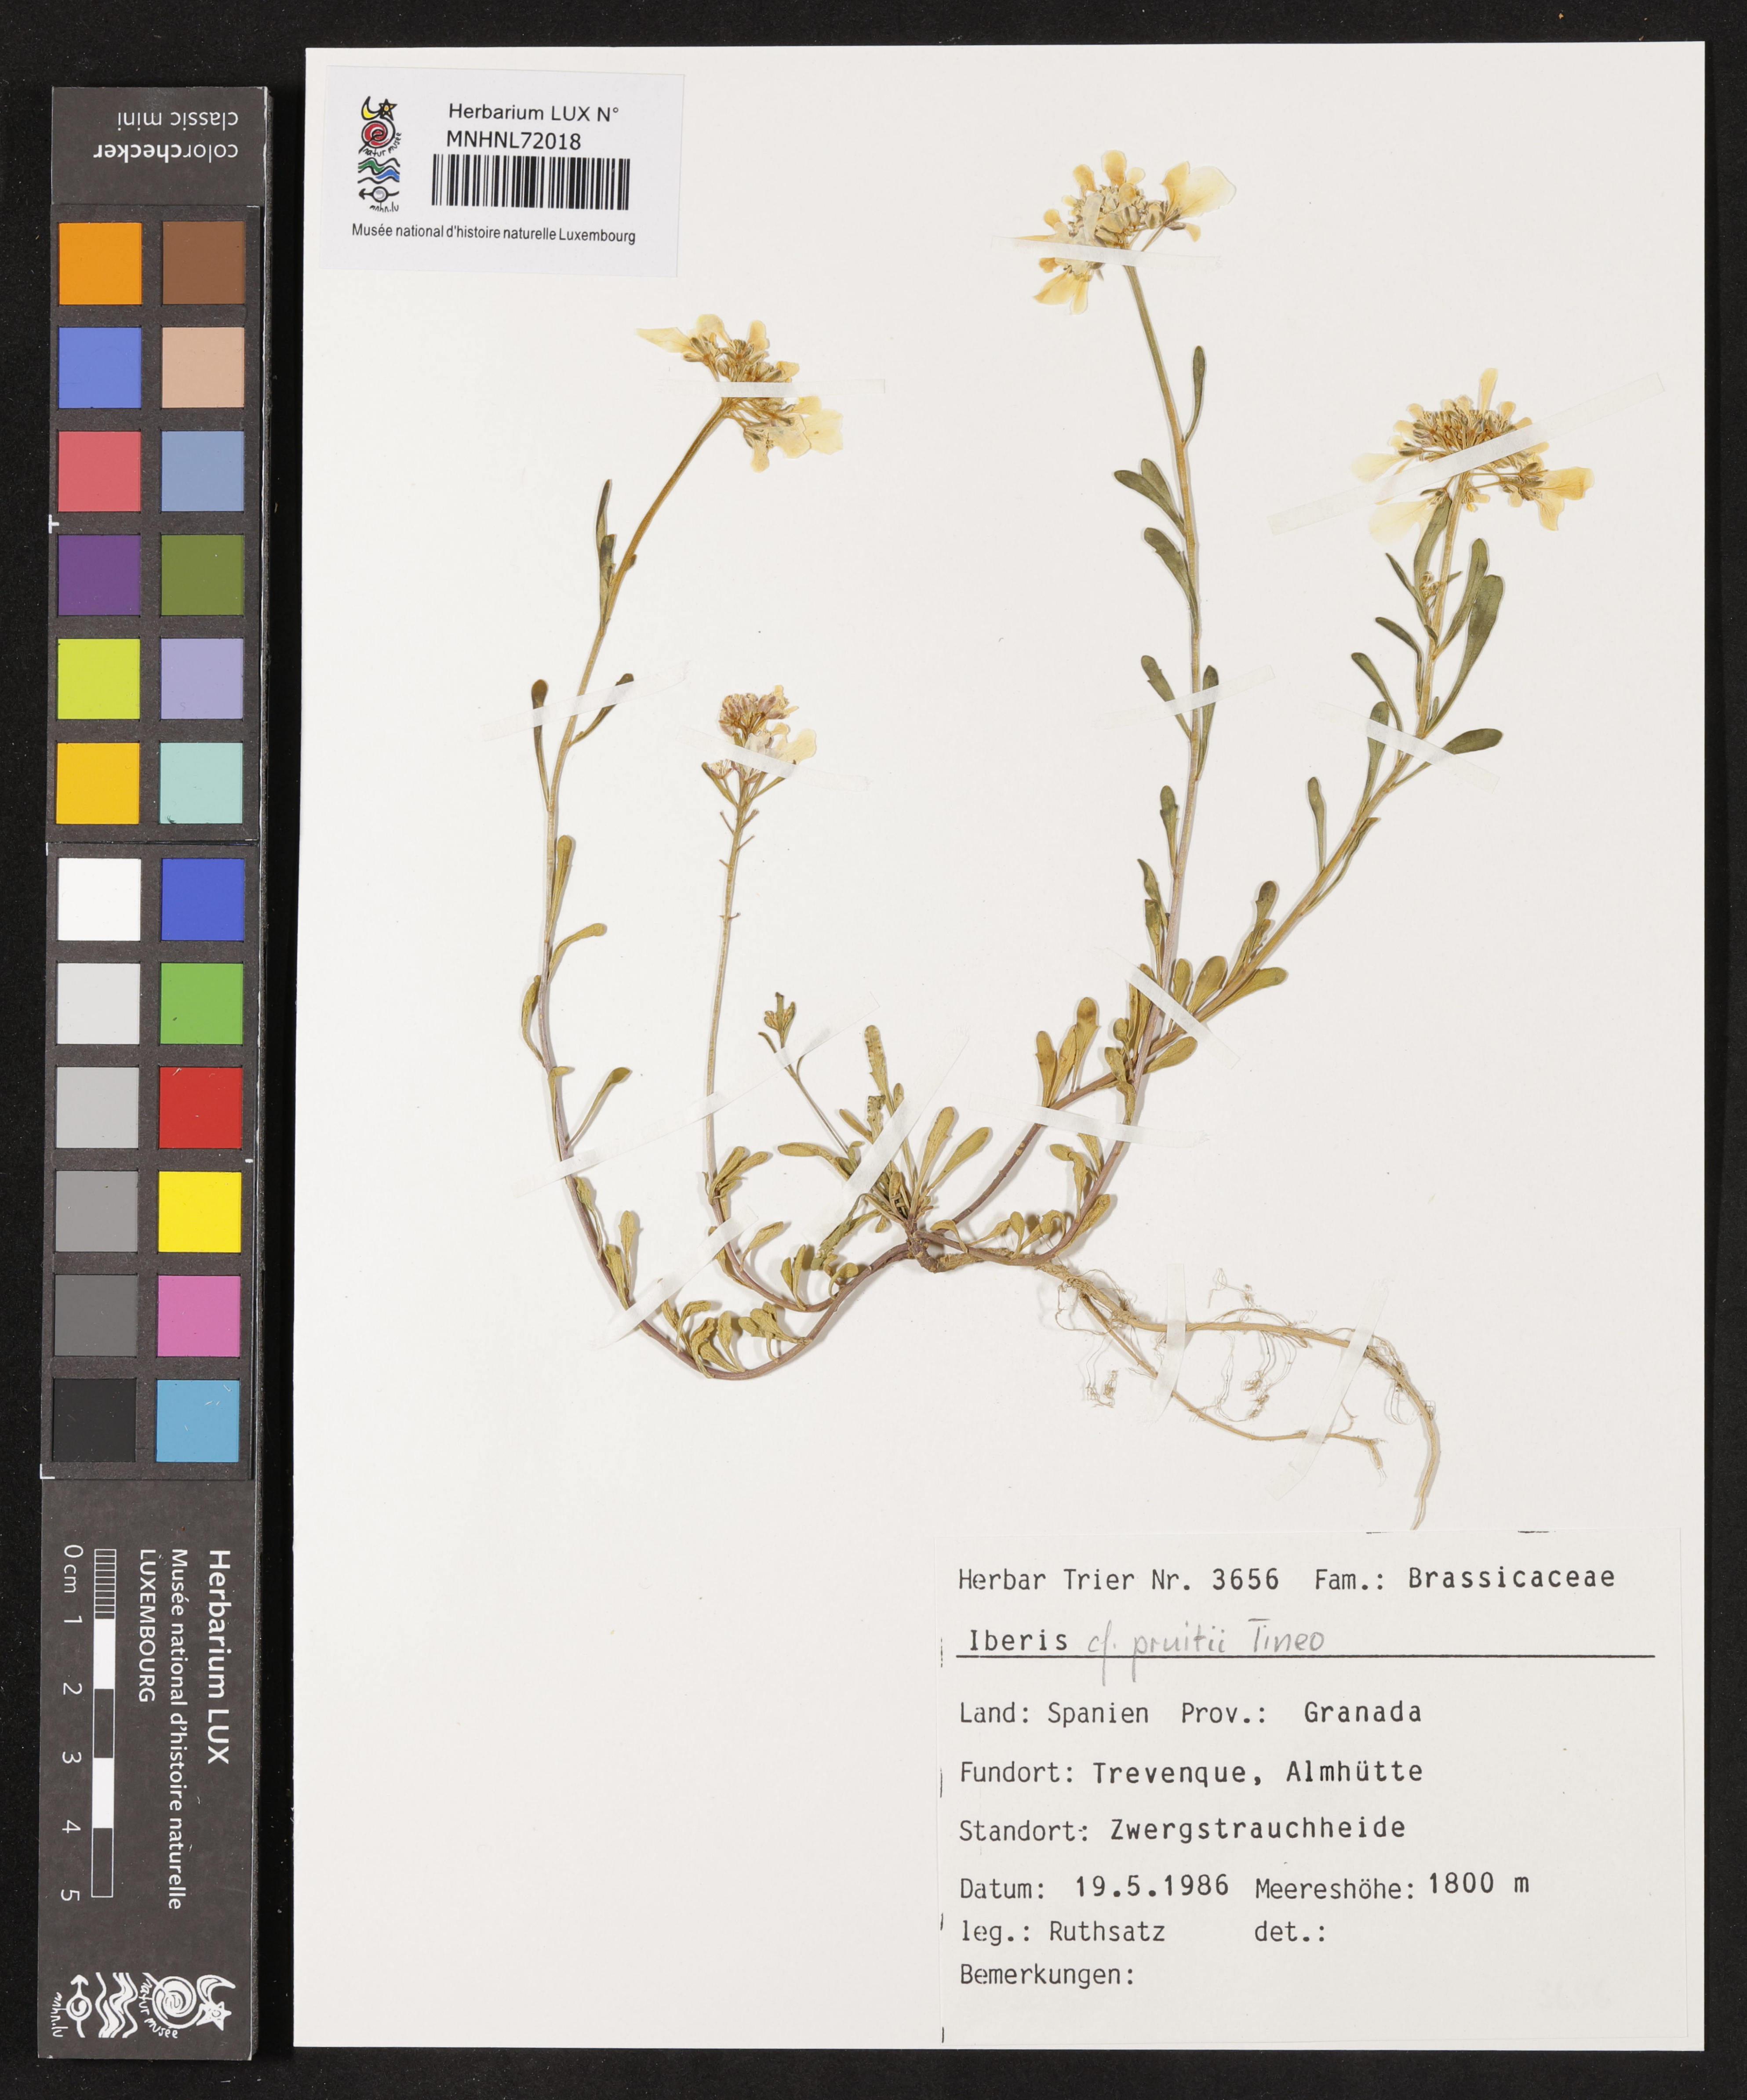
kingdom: Plantae
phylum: Tracheophyta
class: Magnoliopsida
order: Brassicales
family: Brassicaceae
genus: Iberis
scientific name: Iberis carnosa
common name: Pruit's candytuft
